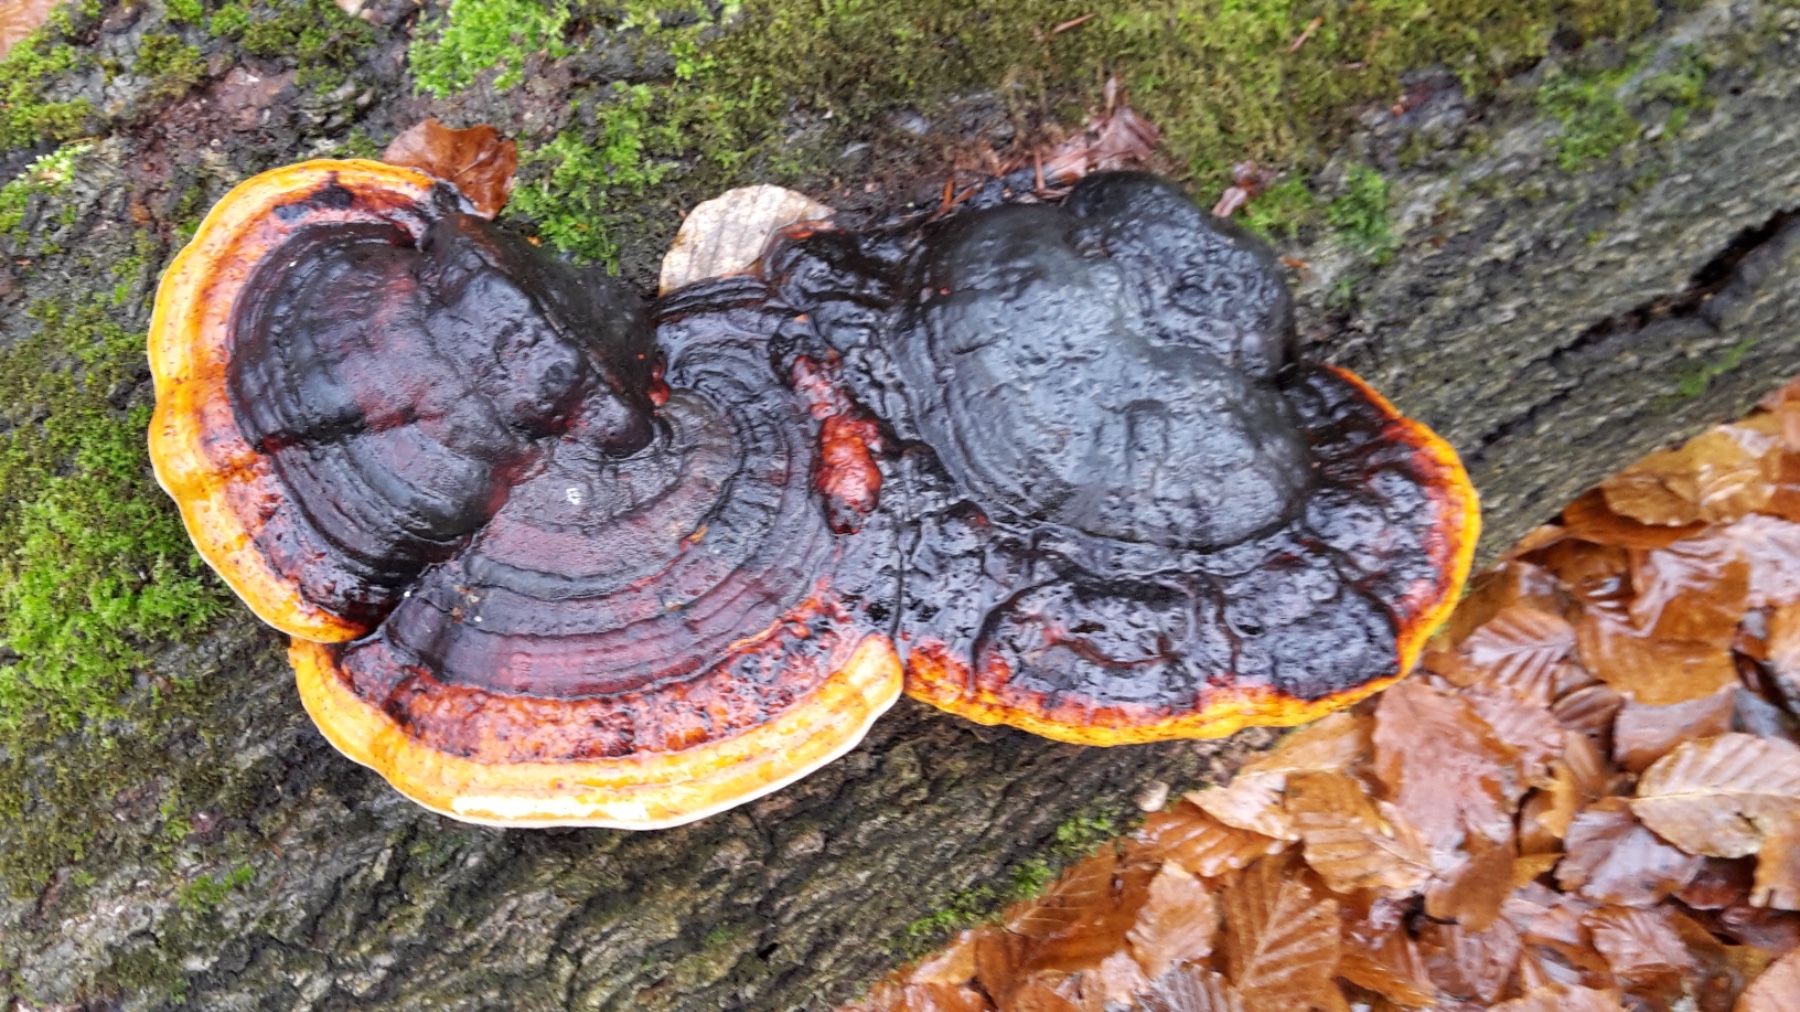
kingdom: Fungi
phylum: Basidiomycota
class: Agaricomycetes
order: Polyporales
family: Fomitopsidaceae
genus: Fomitopsis
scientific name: Fomitopsis pinicola
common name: randbæltet hovporesvamp
